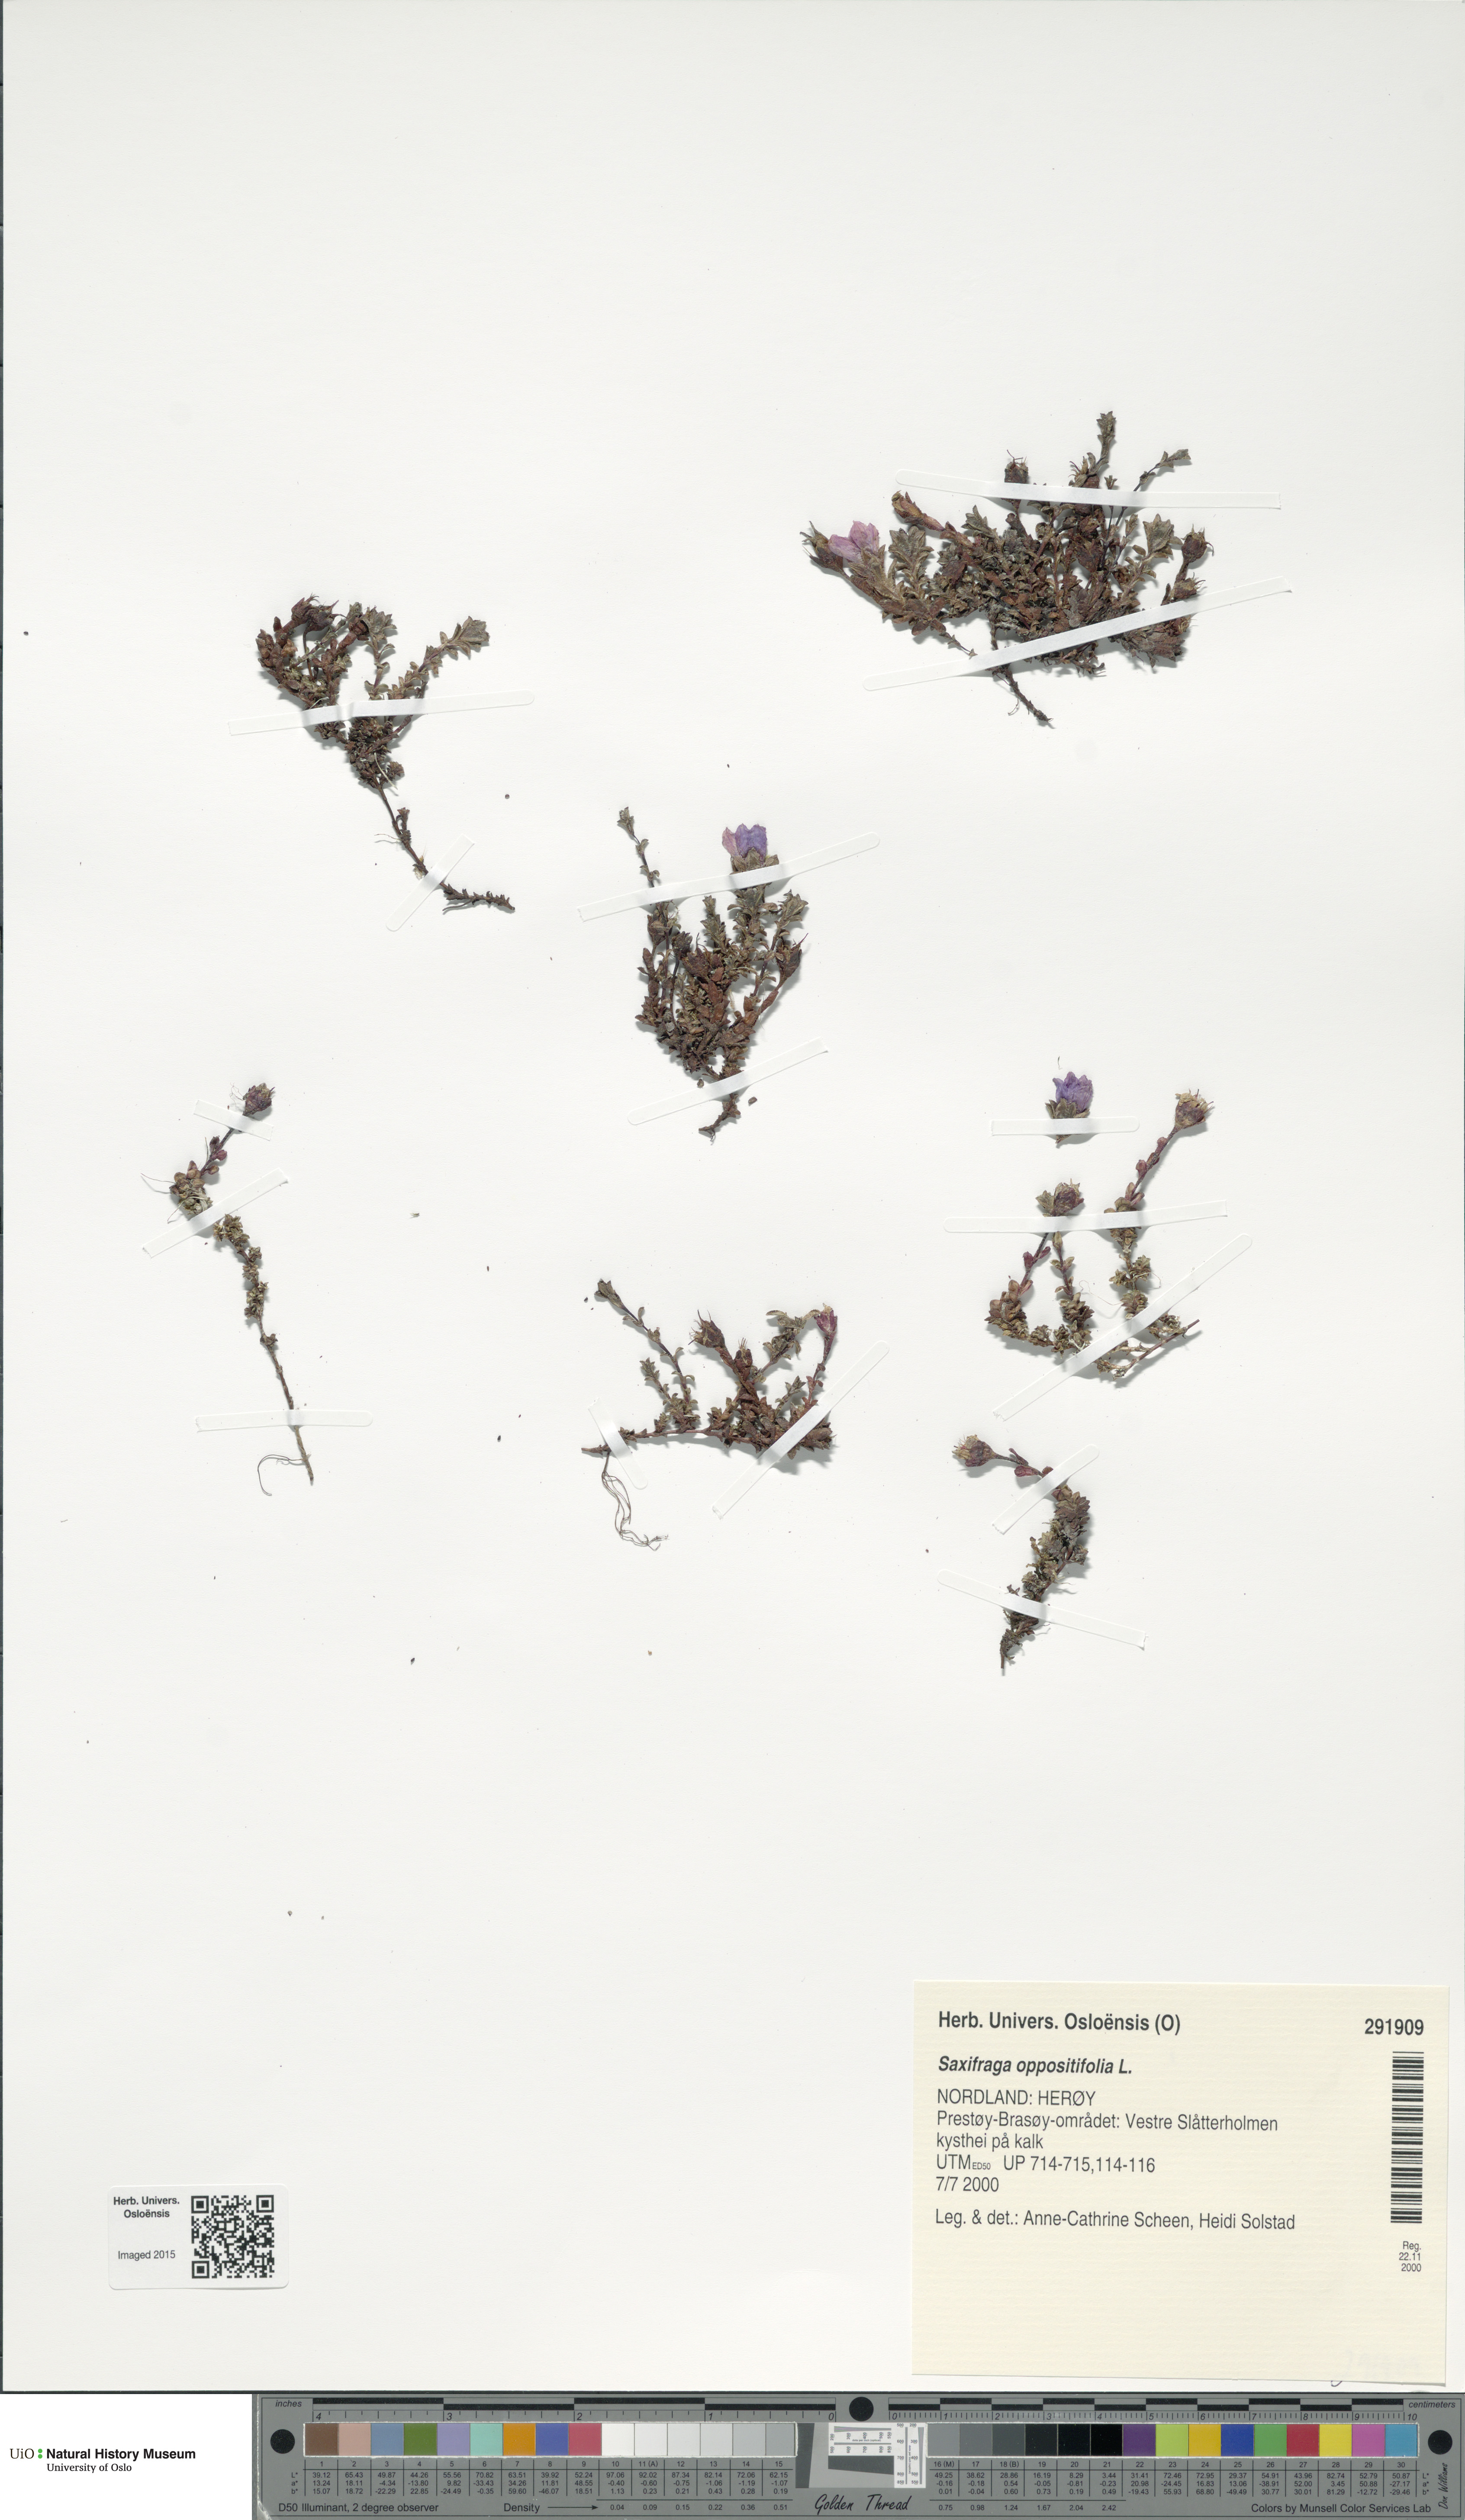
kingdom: Plantae
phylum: Tracheophyta
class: Magnoliopsida
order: Saxifragales
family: Saxifragaceae
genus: Saxifraga
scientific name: Saxifraga oppositifolia
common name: Purple saxifrage
